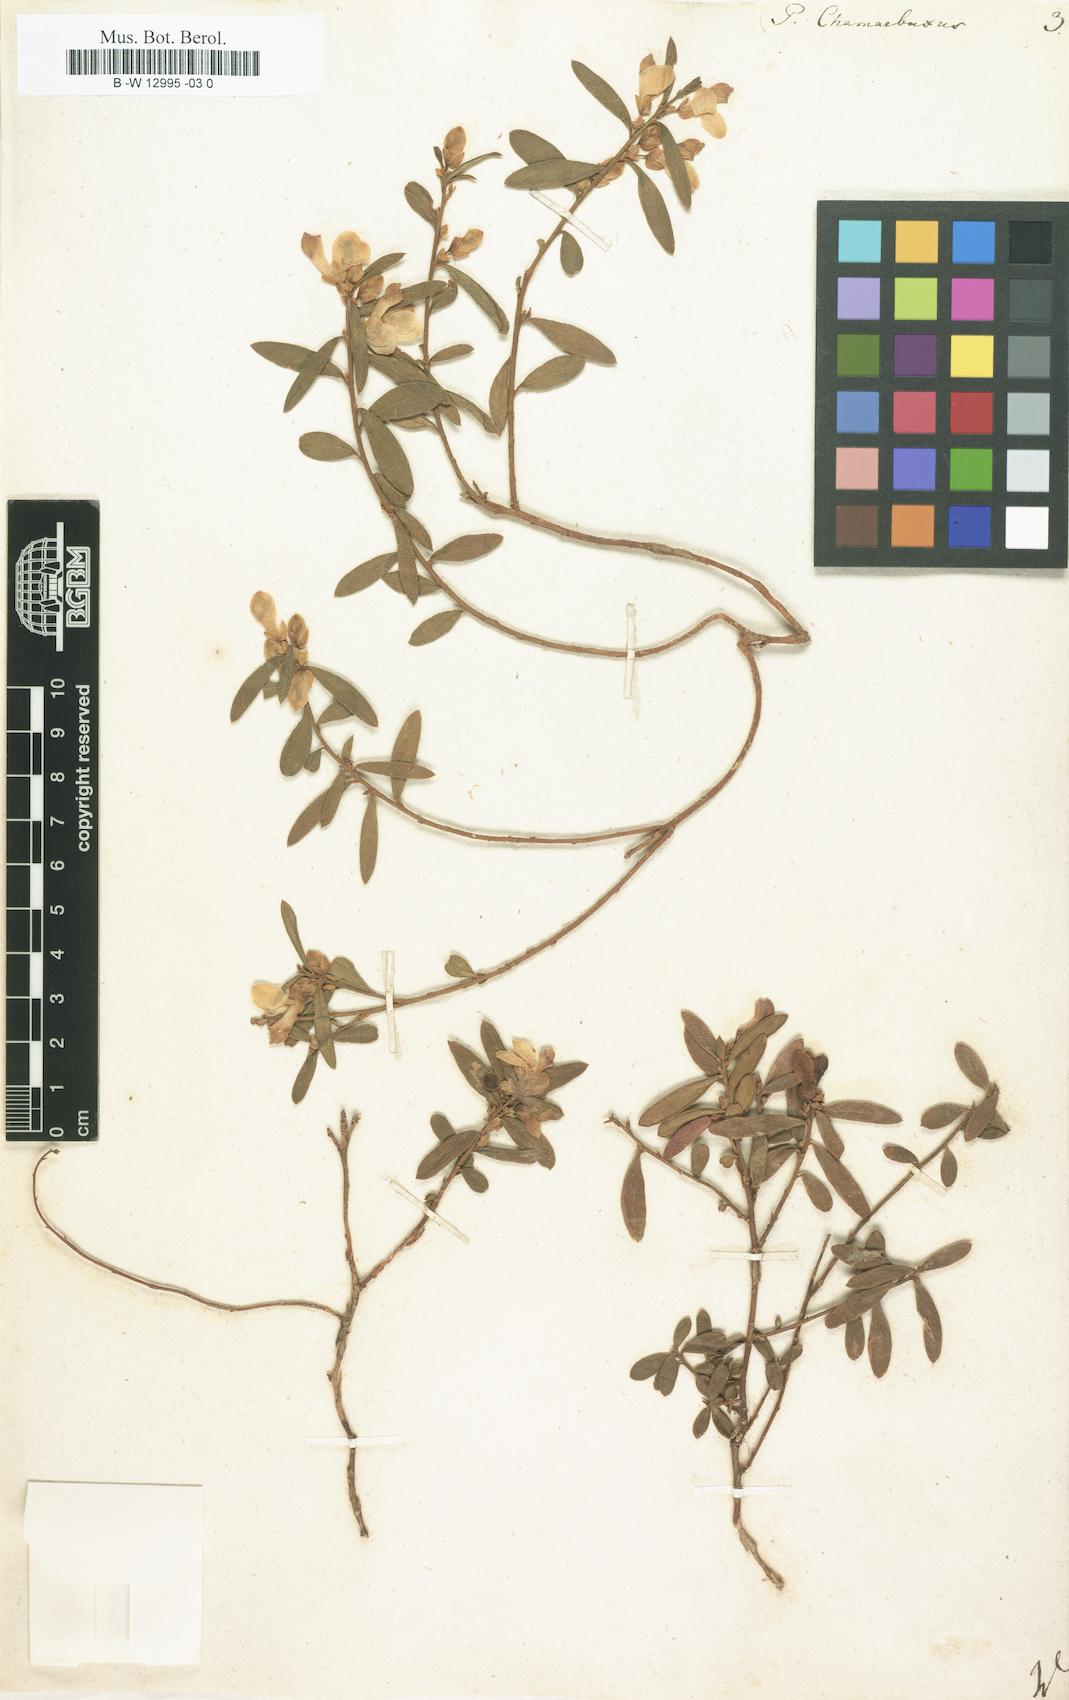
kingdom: Plantae
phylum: Tracheophyta
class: Magnoliopsida
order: Fabales
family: Polygalaceae
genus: Polygaloides
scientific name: Polygaloides chamaebuxus
